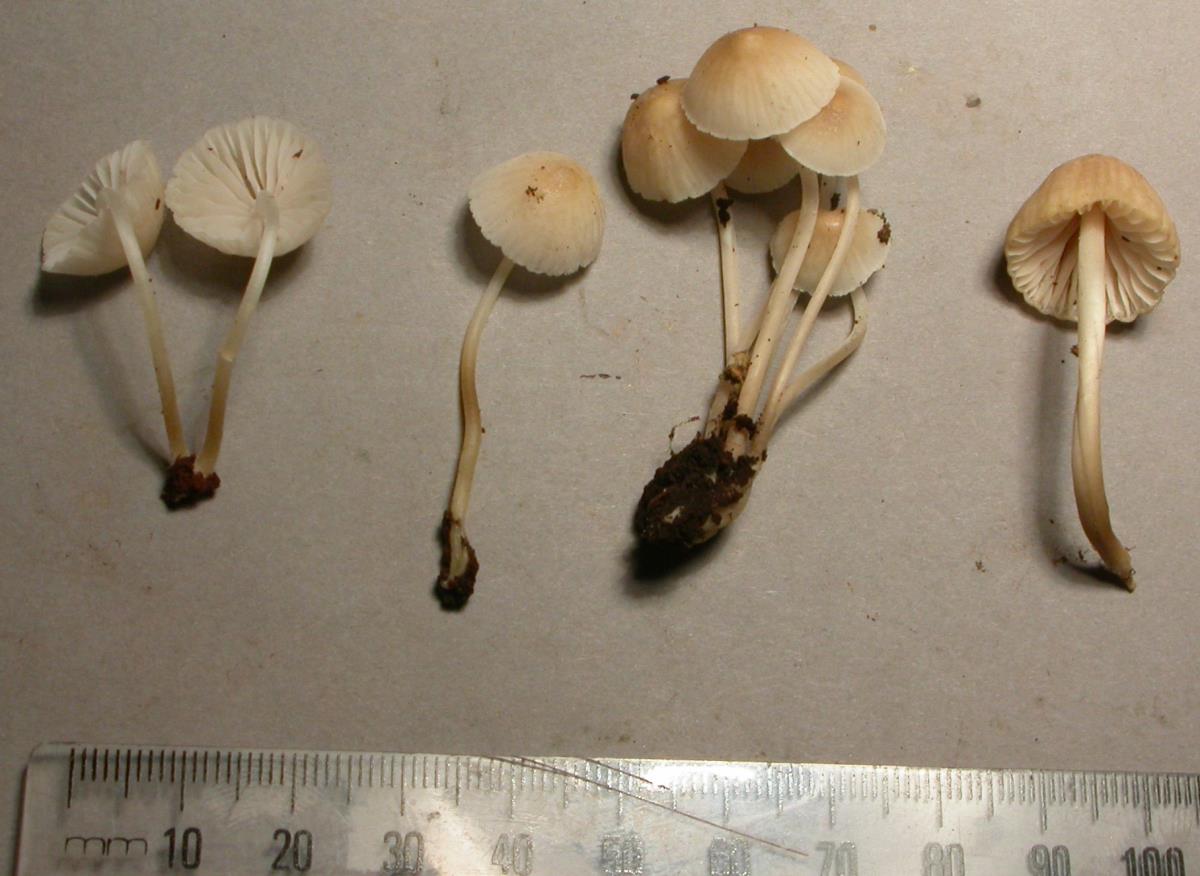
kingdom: Fungi
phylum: Basidiomycota
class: Agaricomycetes
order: Agaricales
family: Mycenaceae
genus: Mycena
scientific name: Mycena morris-jonesii
